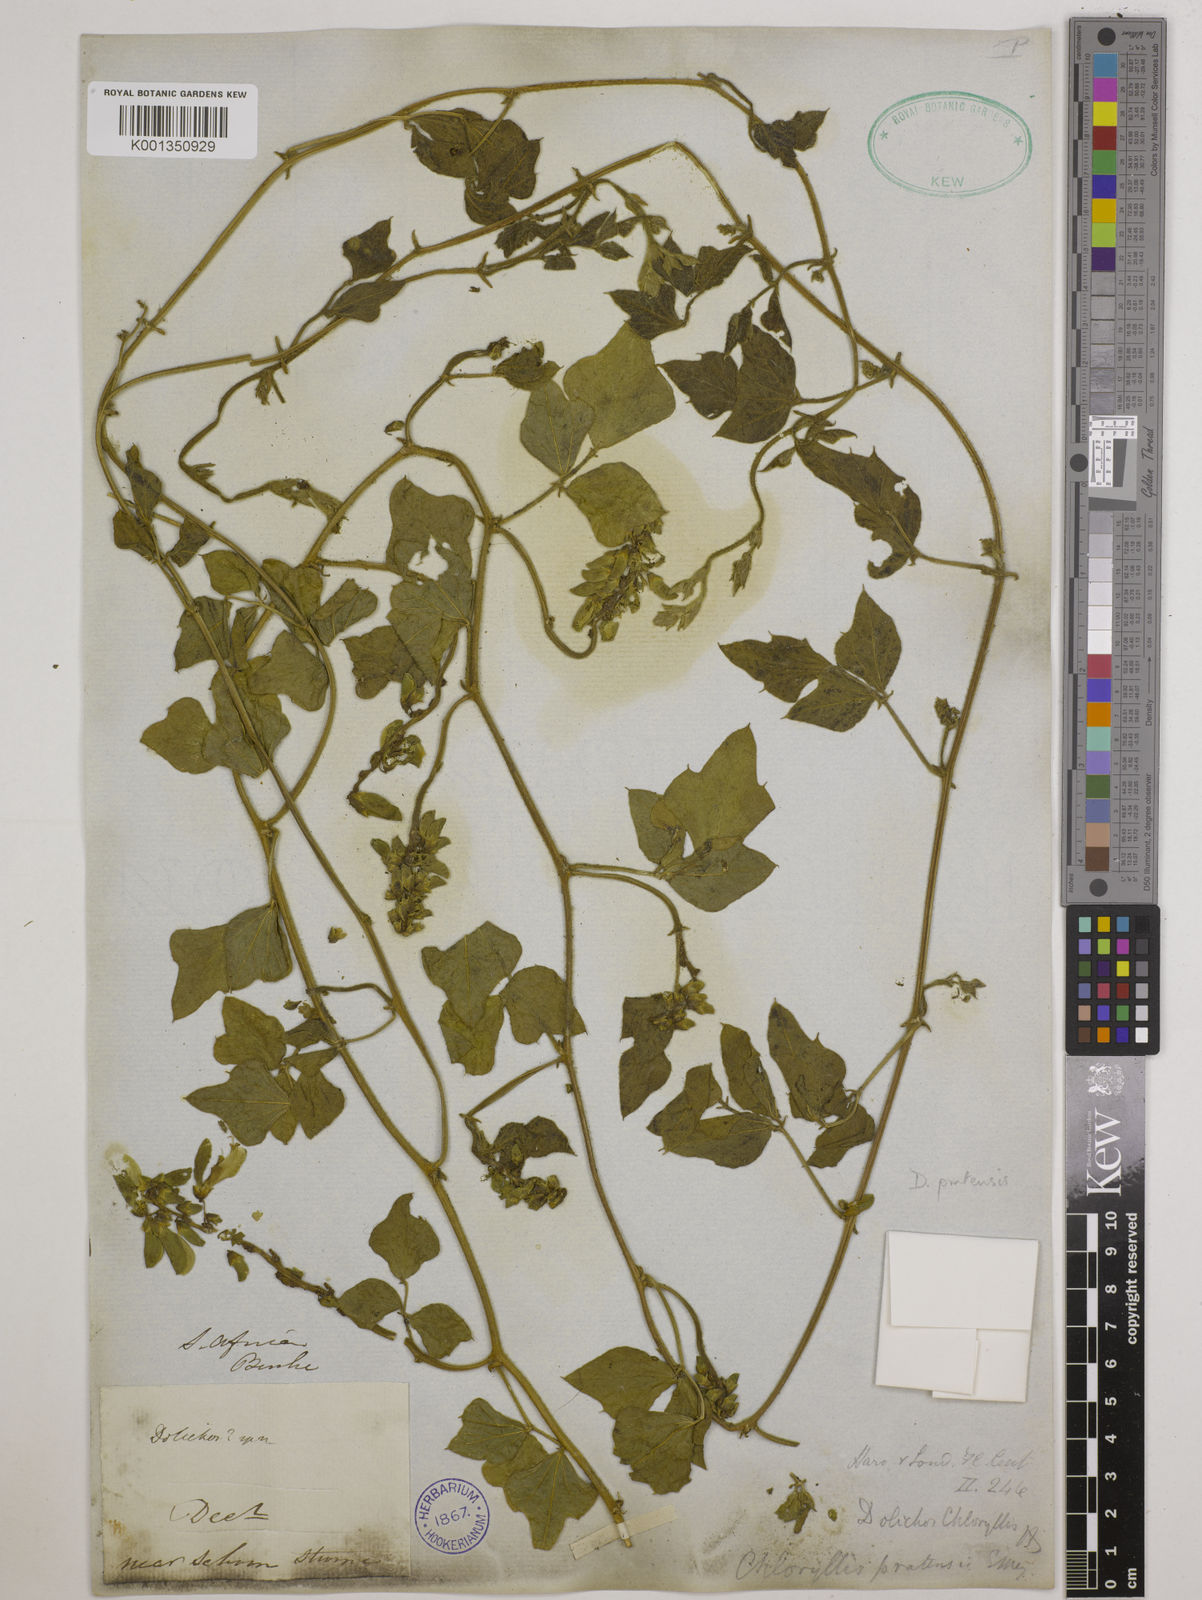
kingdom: Plantae
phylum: Tracheophyta
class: Magnoliopsida
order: Fabales
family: Fabaceae
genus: Dolichos
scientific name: Dolichos pratensis
